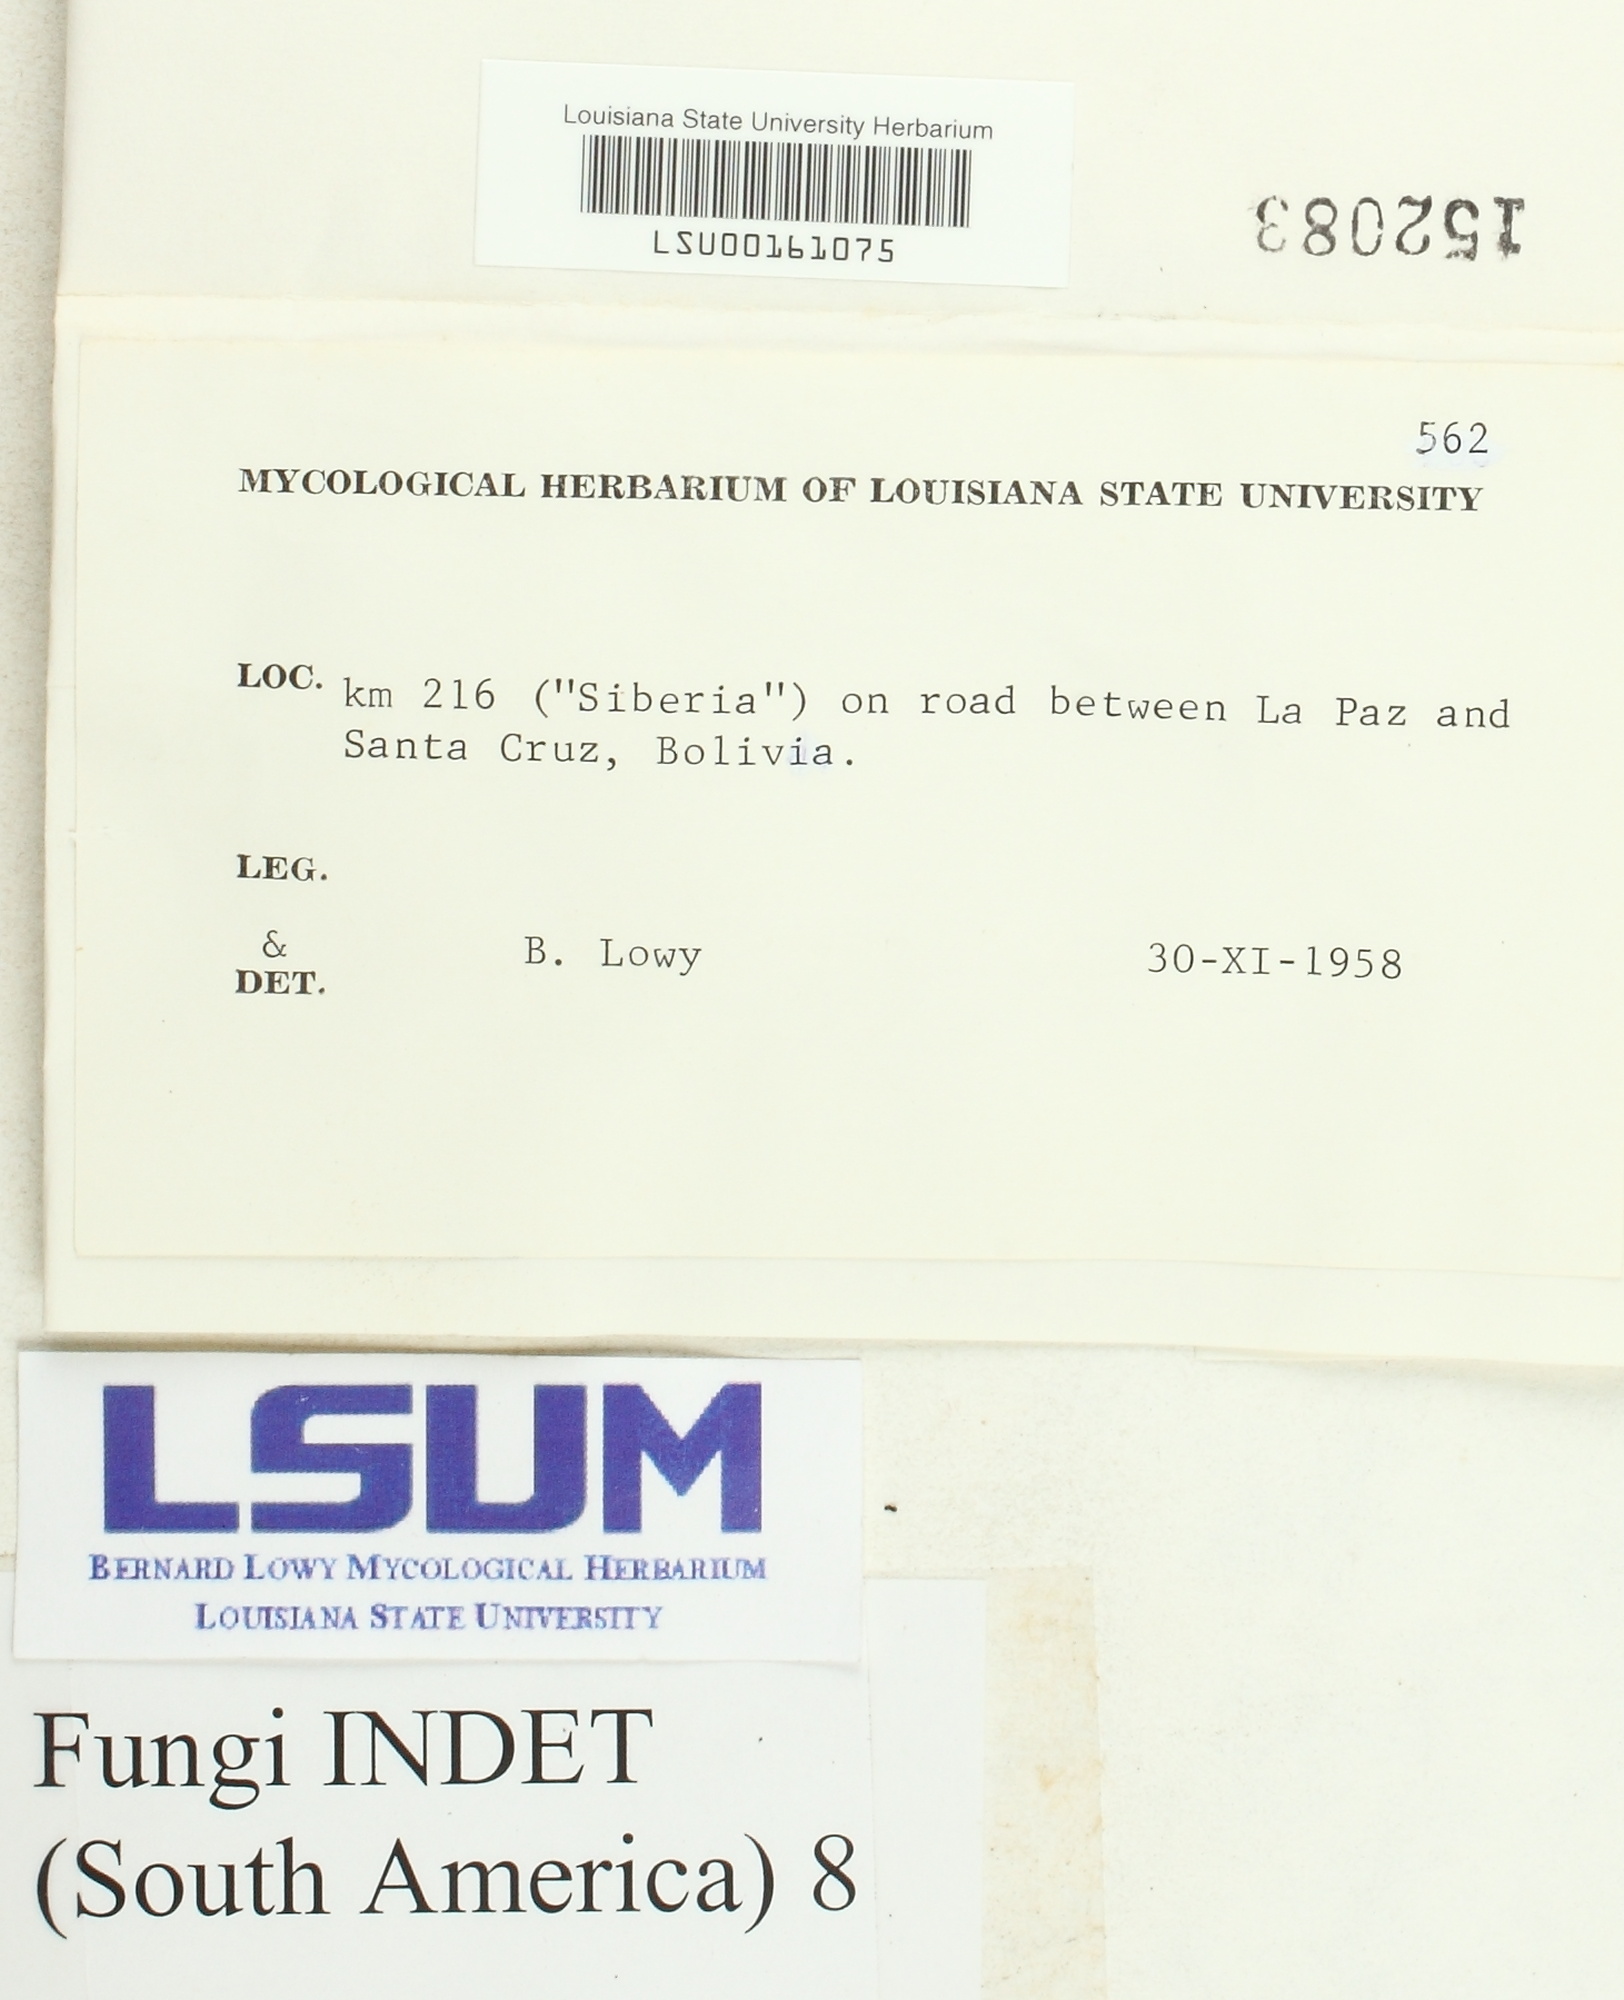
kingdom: Fungi
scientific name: Fungi
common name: Fungi
